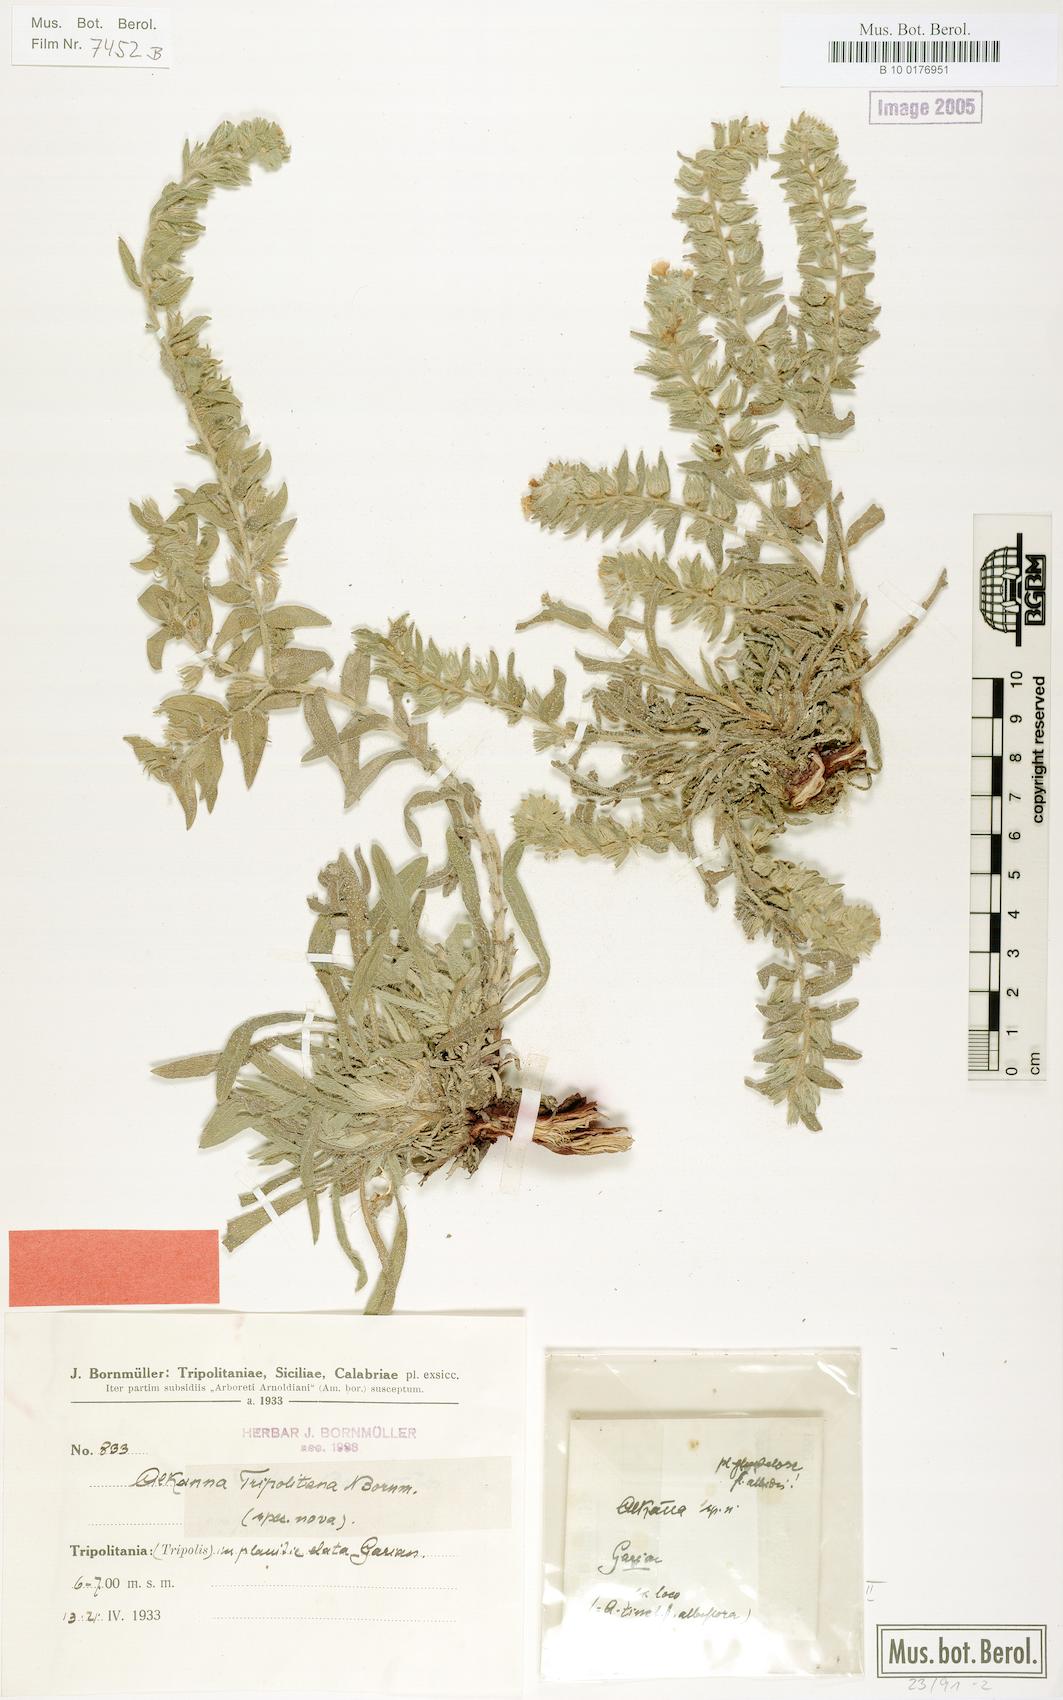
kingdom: Plantae
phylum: Tracheophyta
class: Magnoliopsida
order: Boraginales
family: Boraginaceae
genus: Alkanna
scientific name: Alkanna tinctoria
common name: Dyer's-alkanet
